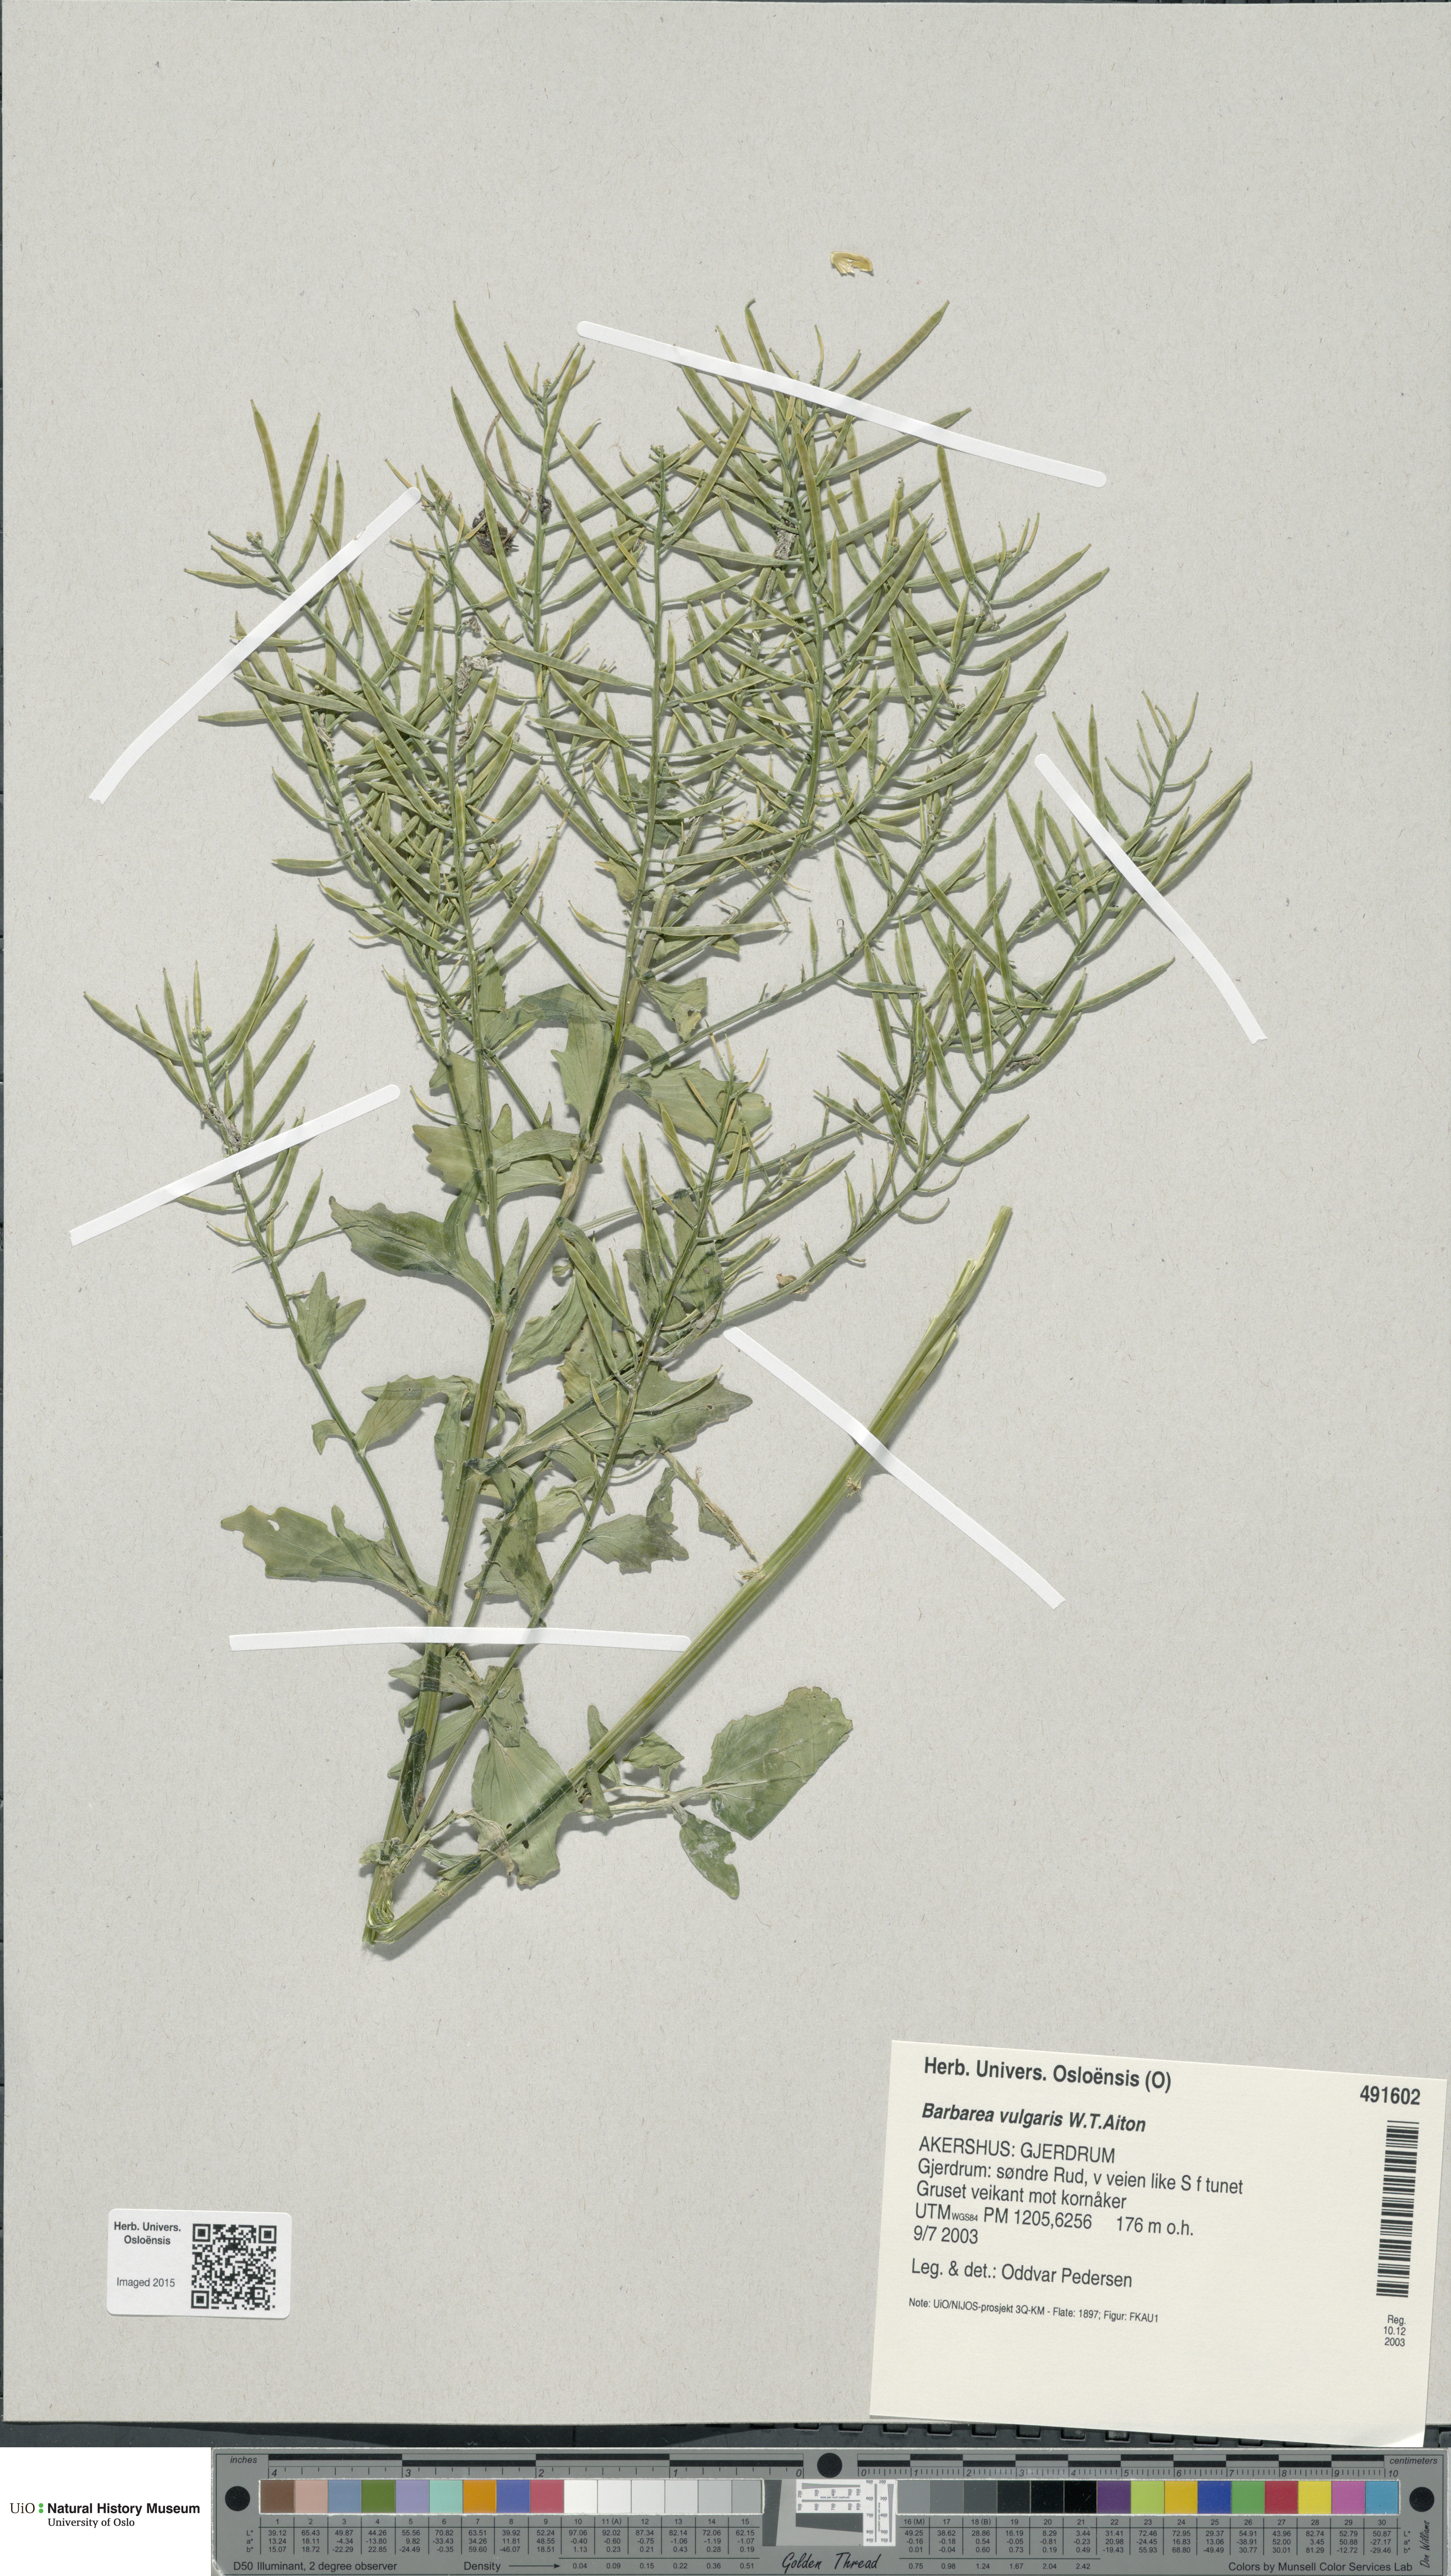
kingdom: Plantae
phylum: Tracheophyta
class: Magnoliopsida
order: Brassicales
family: Brassicaceae
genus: Barbarea
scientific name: Barbarea vulgaris
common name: Cressy-greens
